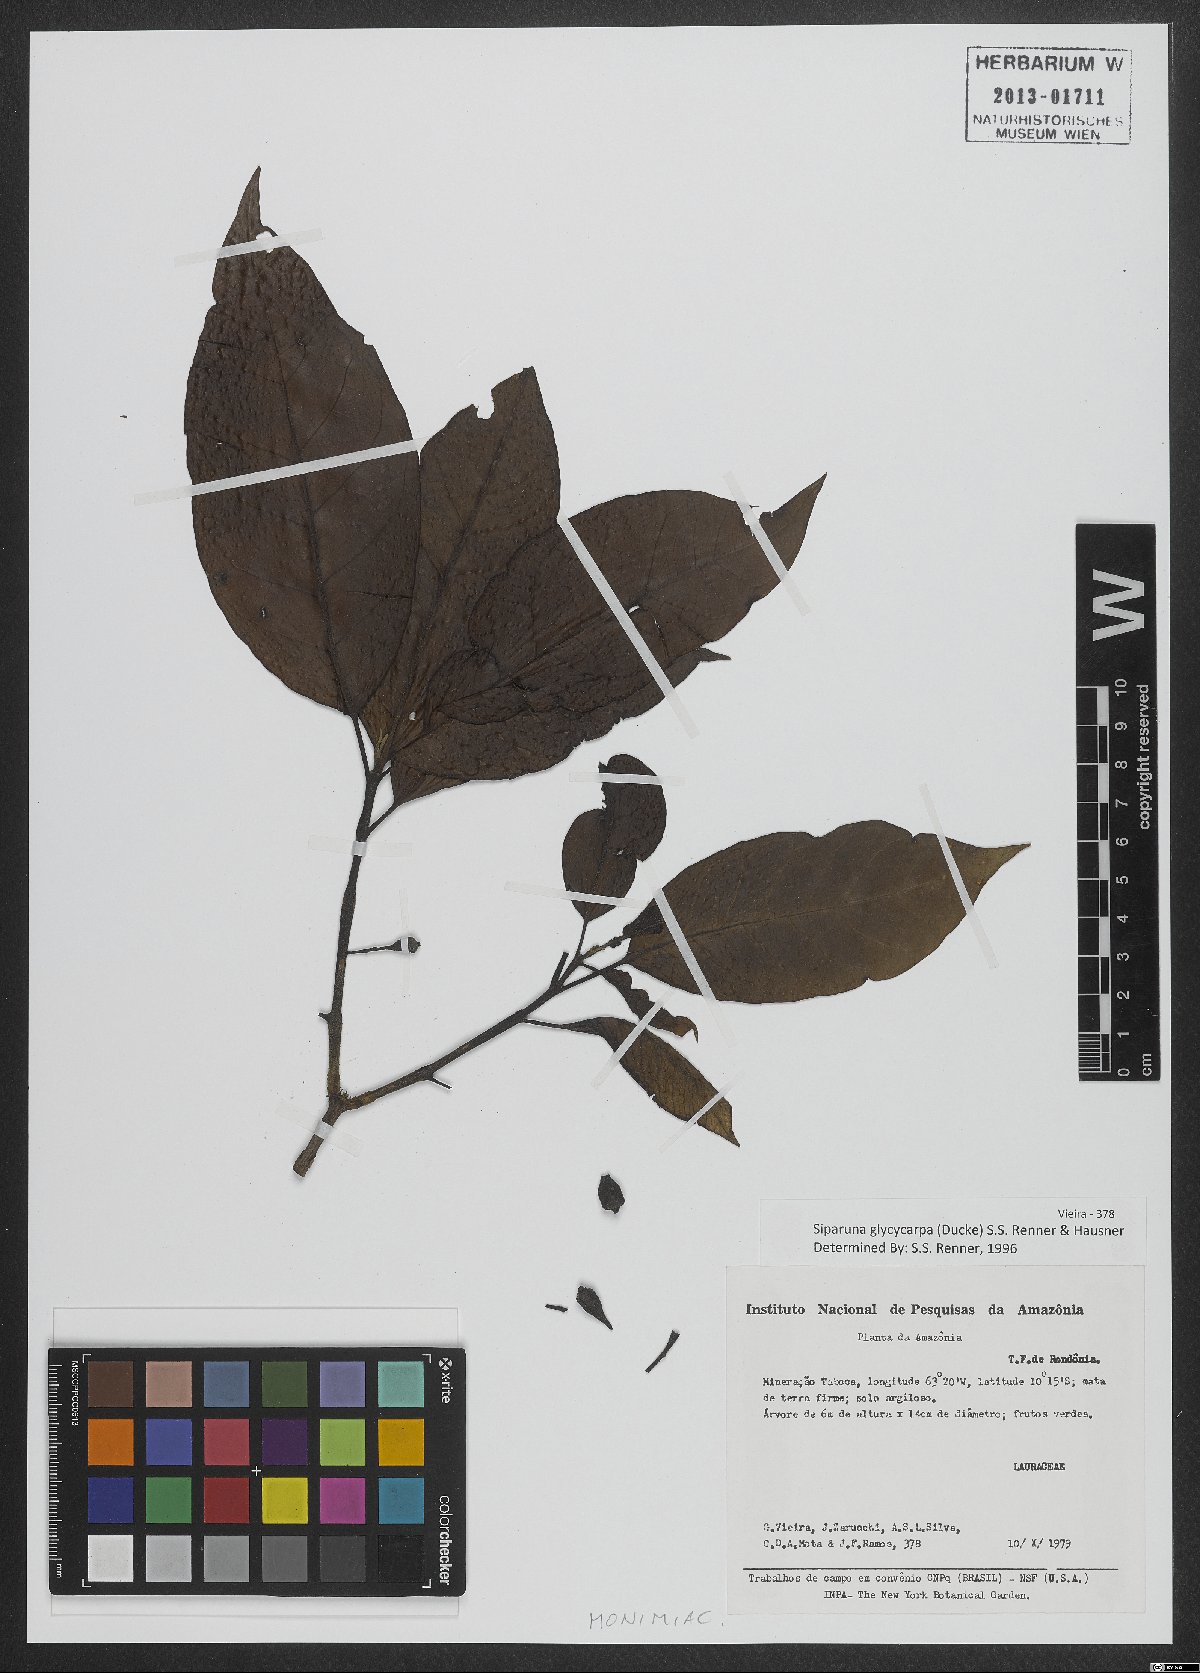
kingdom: Plantae
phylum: Tracheophyta
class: Magnoliopsida
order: Laurales
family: Siparunaceae
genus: Siparuna
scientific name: Siparuna glycycarpa
